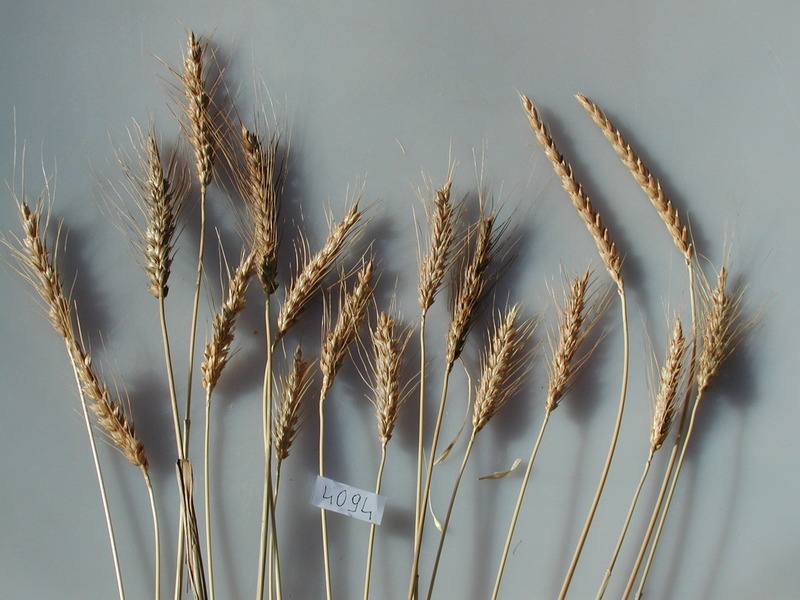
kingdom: Plantae
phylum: Tracheophyta
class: Liliopsida
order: Poales
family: Poaceae
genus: Triticum
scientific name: Triticum aestivum
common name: Wheat
